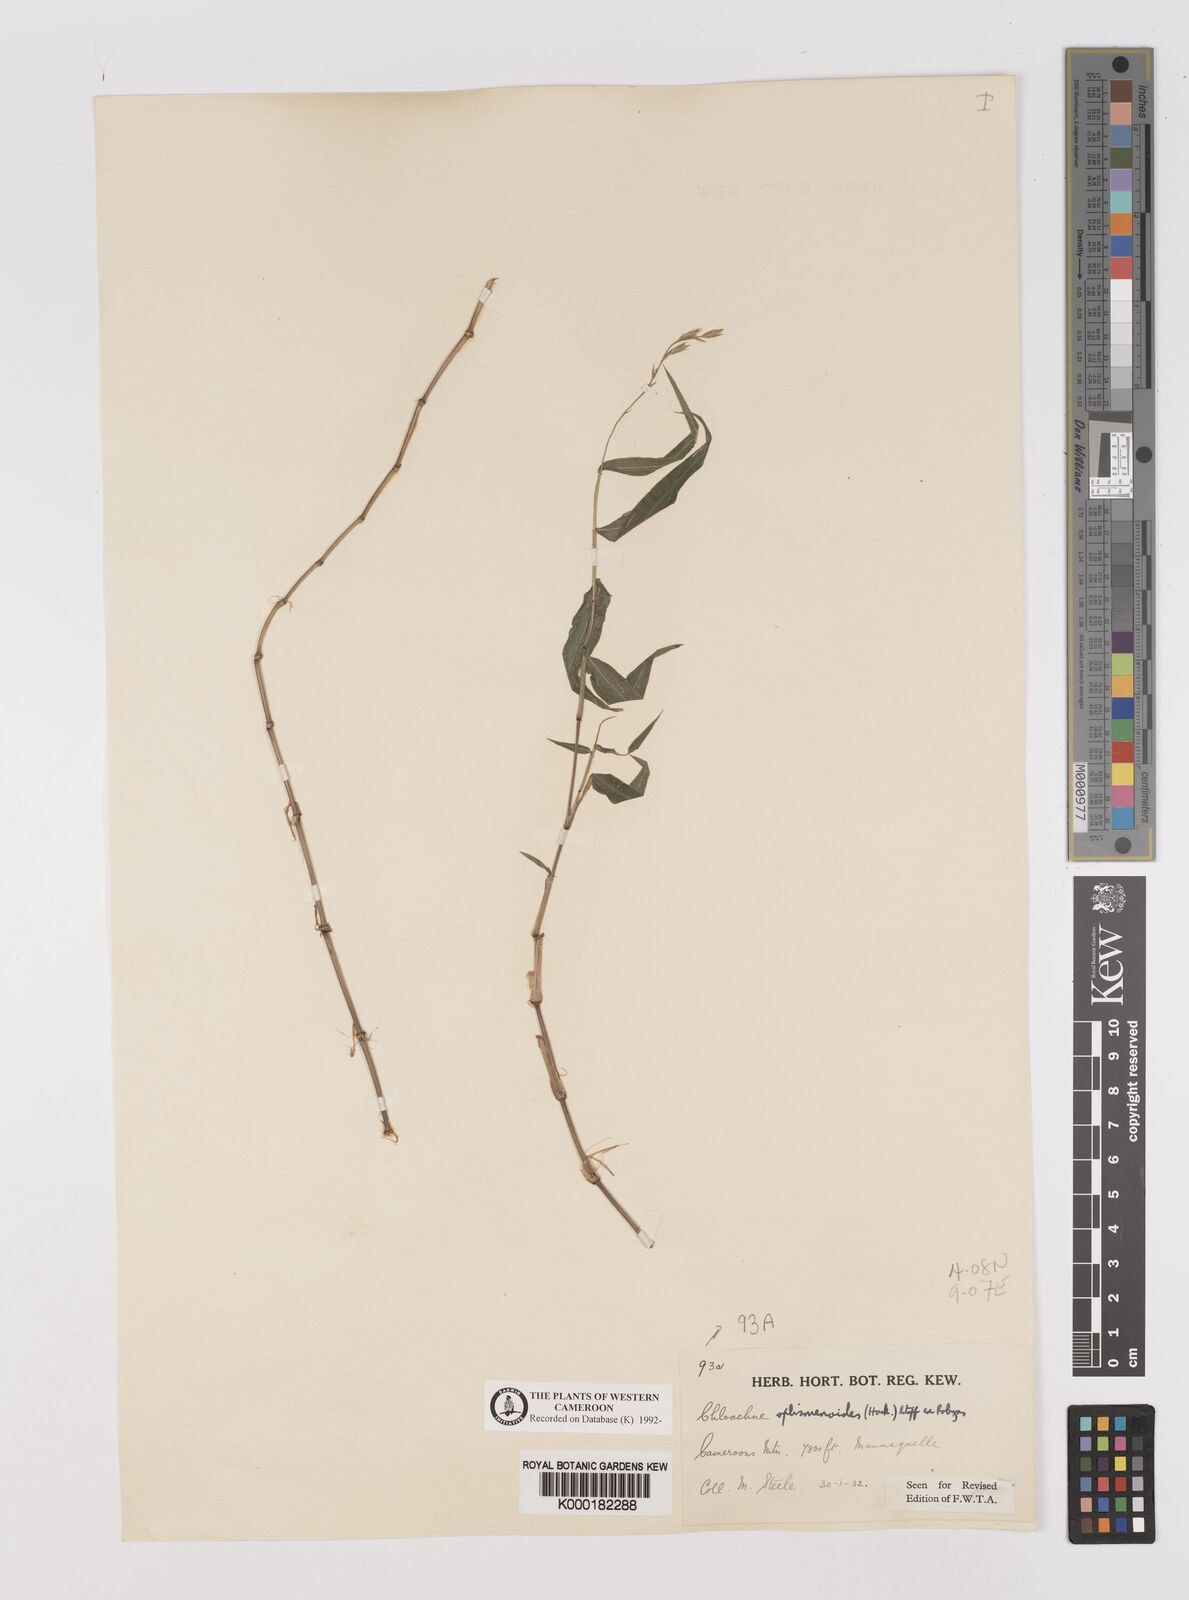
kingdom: Plantae
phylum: Tracheophyta
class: Liliopsida
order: Poales
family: Poaceae
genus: Poecilostachys
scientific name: Poecilostachys oplismenoides
